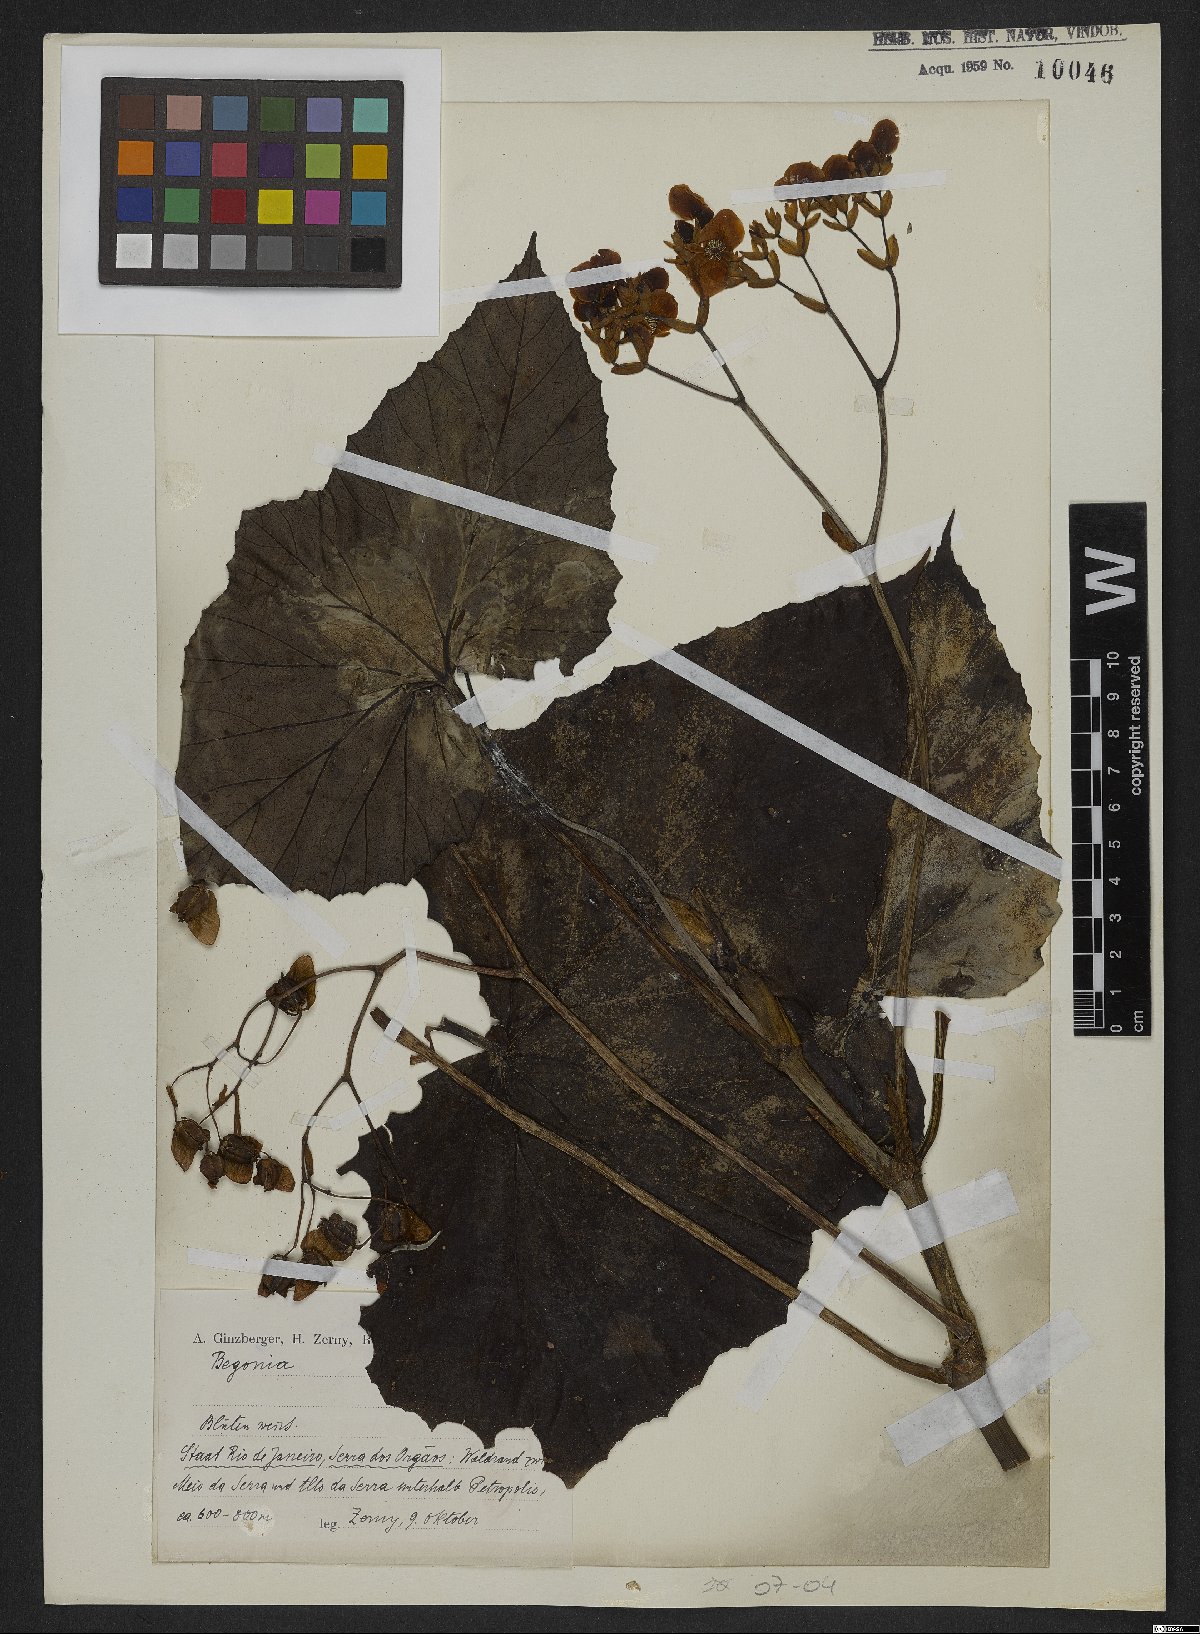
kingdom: Plantae
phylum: Tracheophyta
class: Magnoliopsida
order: Cucurbitales
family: Begoniaceae
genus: Begonia
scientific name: Begonia
